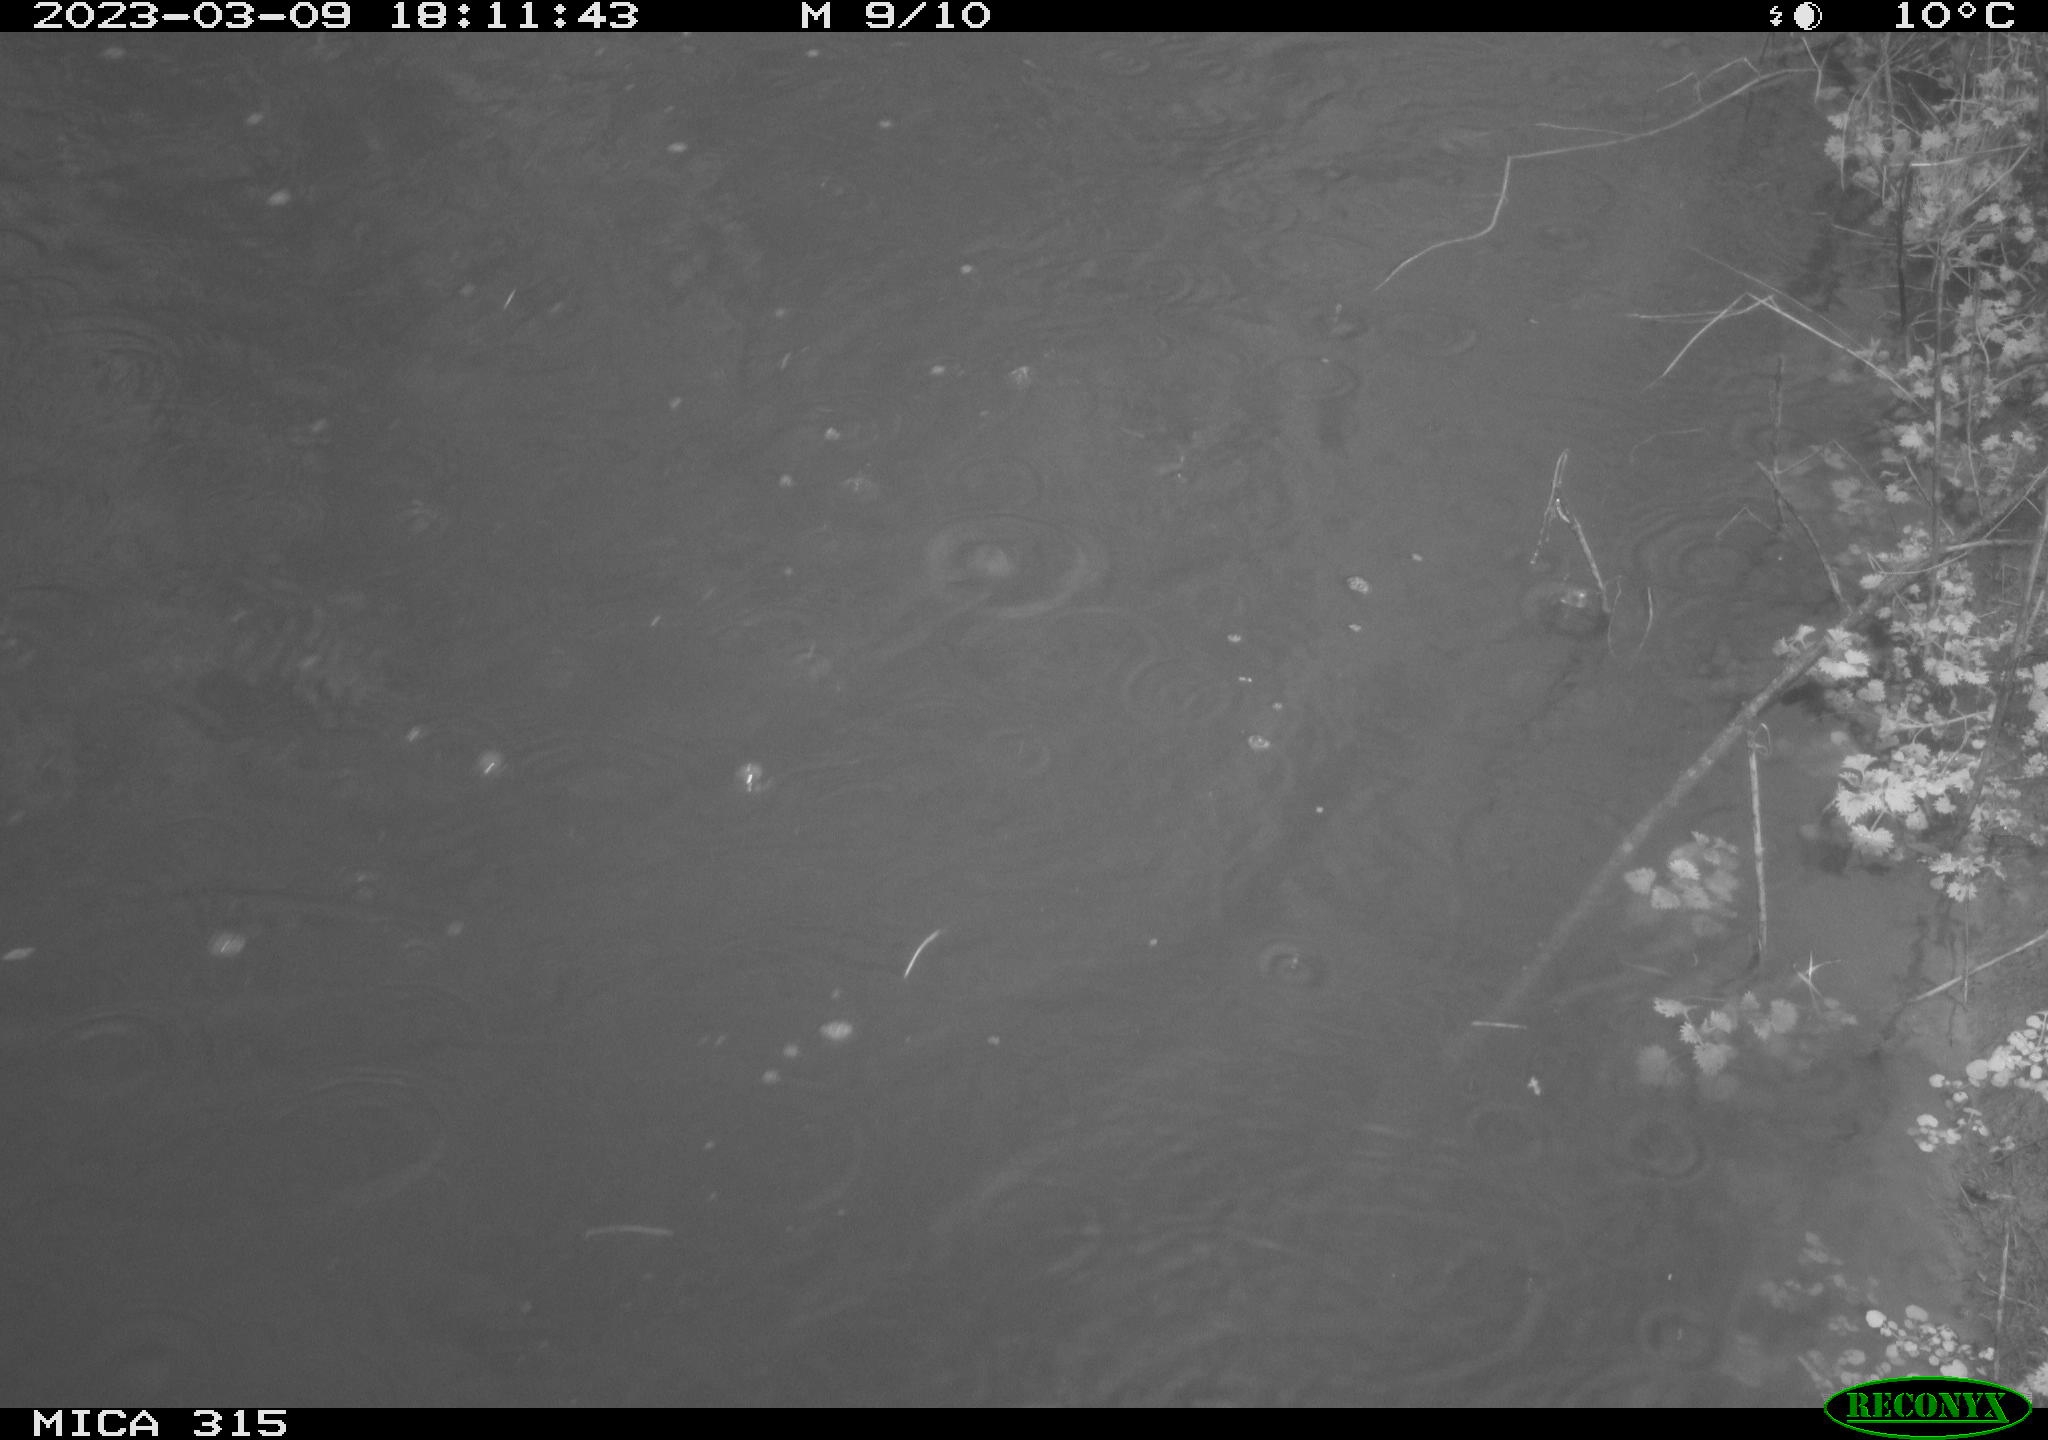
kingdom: Animalia
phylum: Chordata
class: Aves
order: Gruiformes
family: Rallidae
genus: Gallinula
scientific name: Gallinula chloropus
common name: Common moorhen
